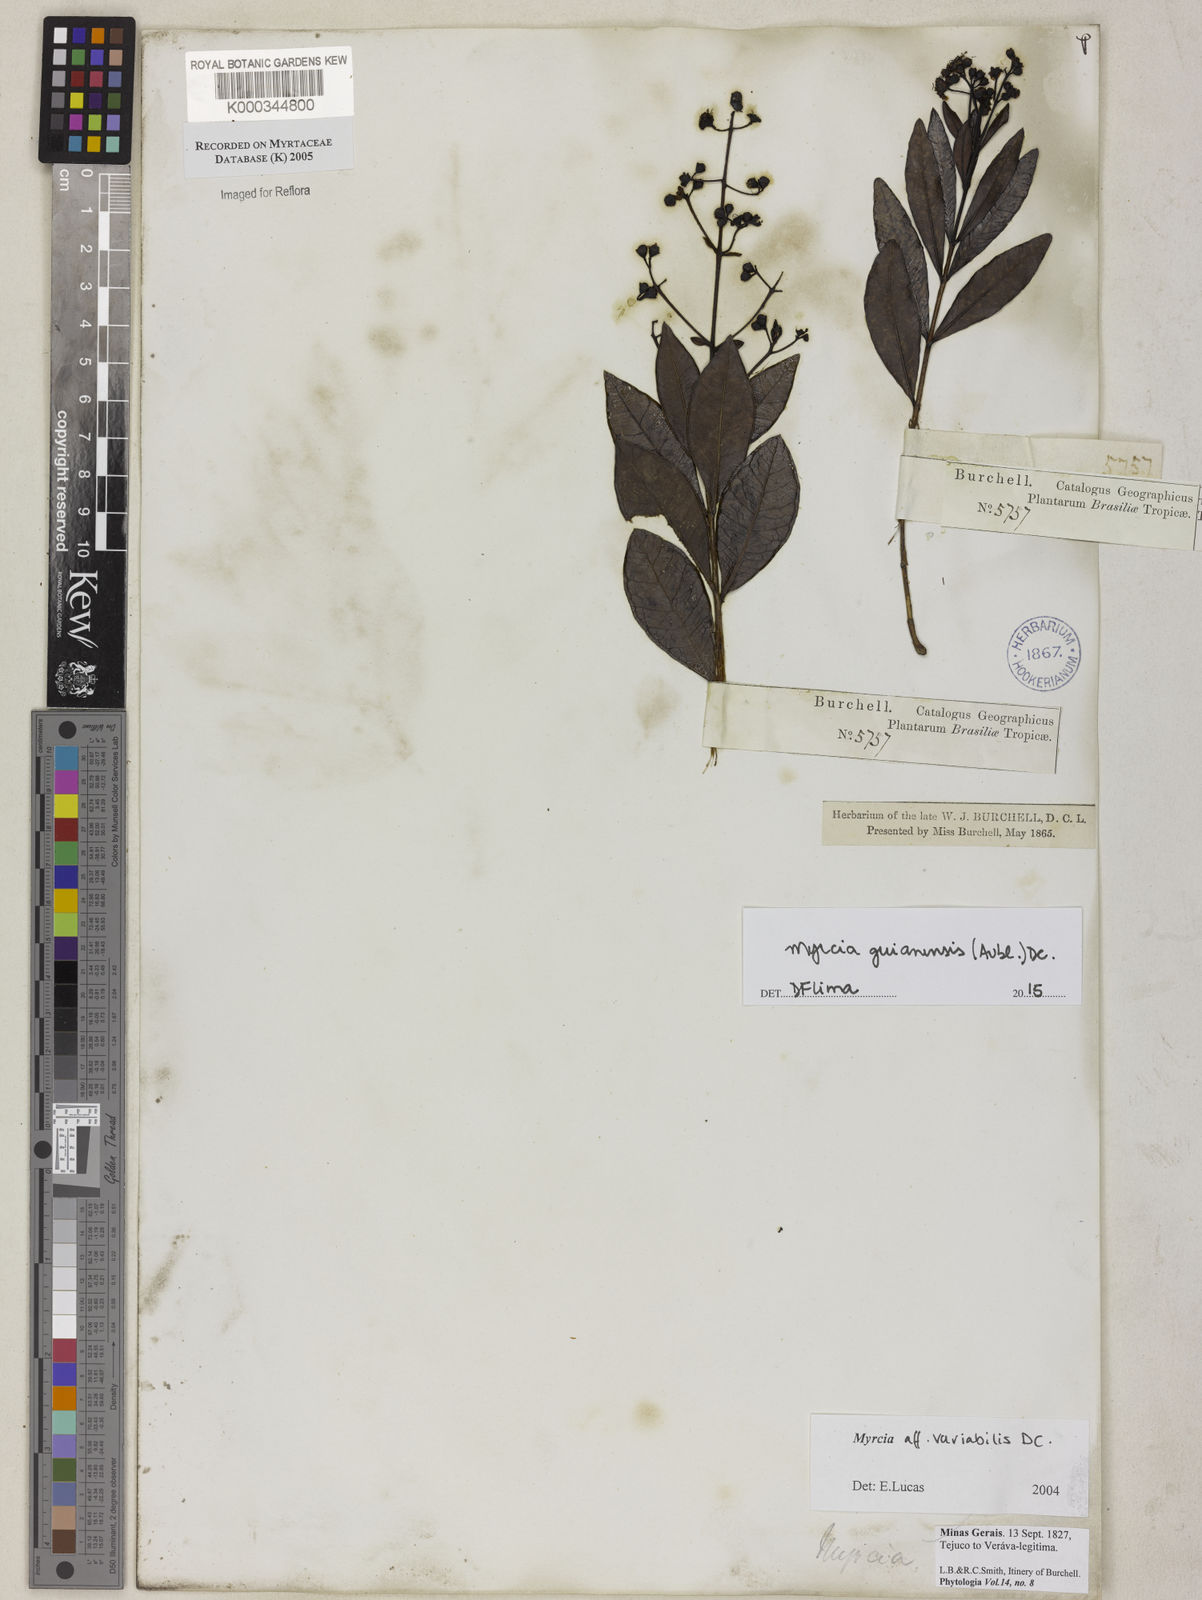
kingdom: Plantae
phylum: Tracheophyta
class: Magnoliopsida
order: Myrtales
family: Myrtaceae
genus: Myrcia
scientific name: Myrcia variabilis
